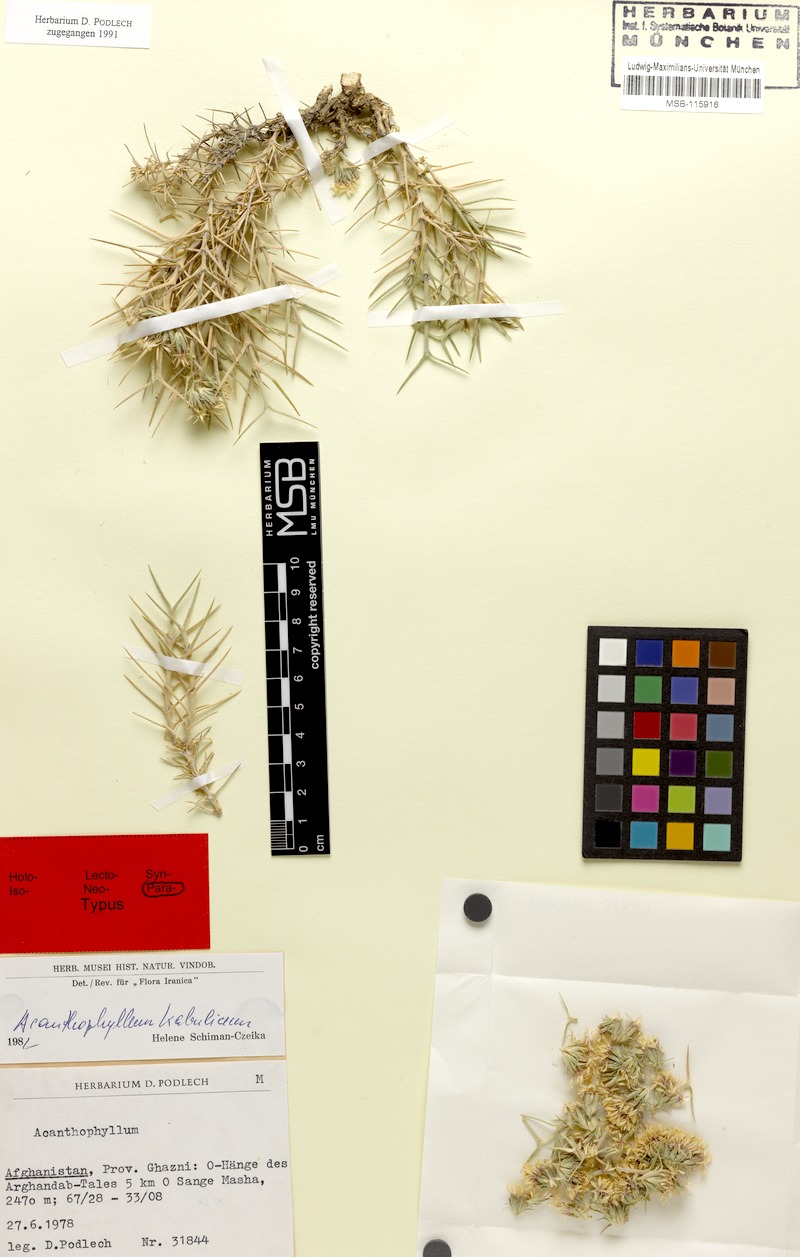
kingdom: Plantae
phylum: Tracheophyta
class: Magnoliopsida
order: Caryophyllales
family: Caryophyllaceae
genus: Acanthophyllum
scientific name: Acanthophyllum kabulicum
